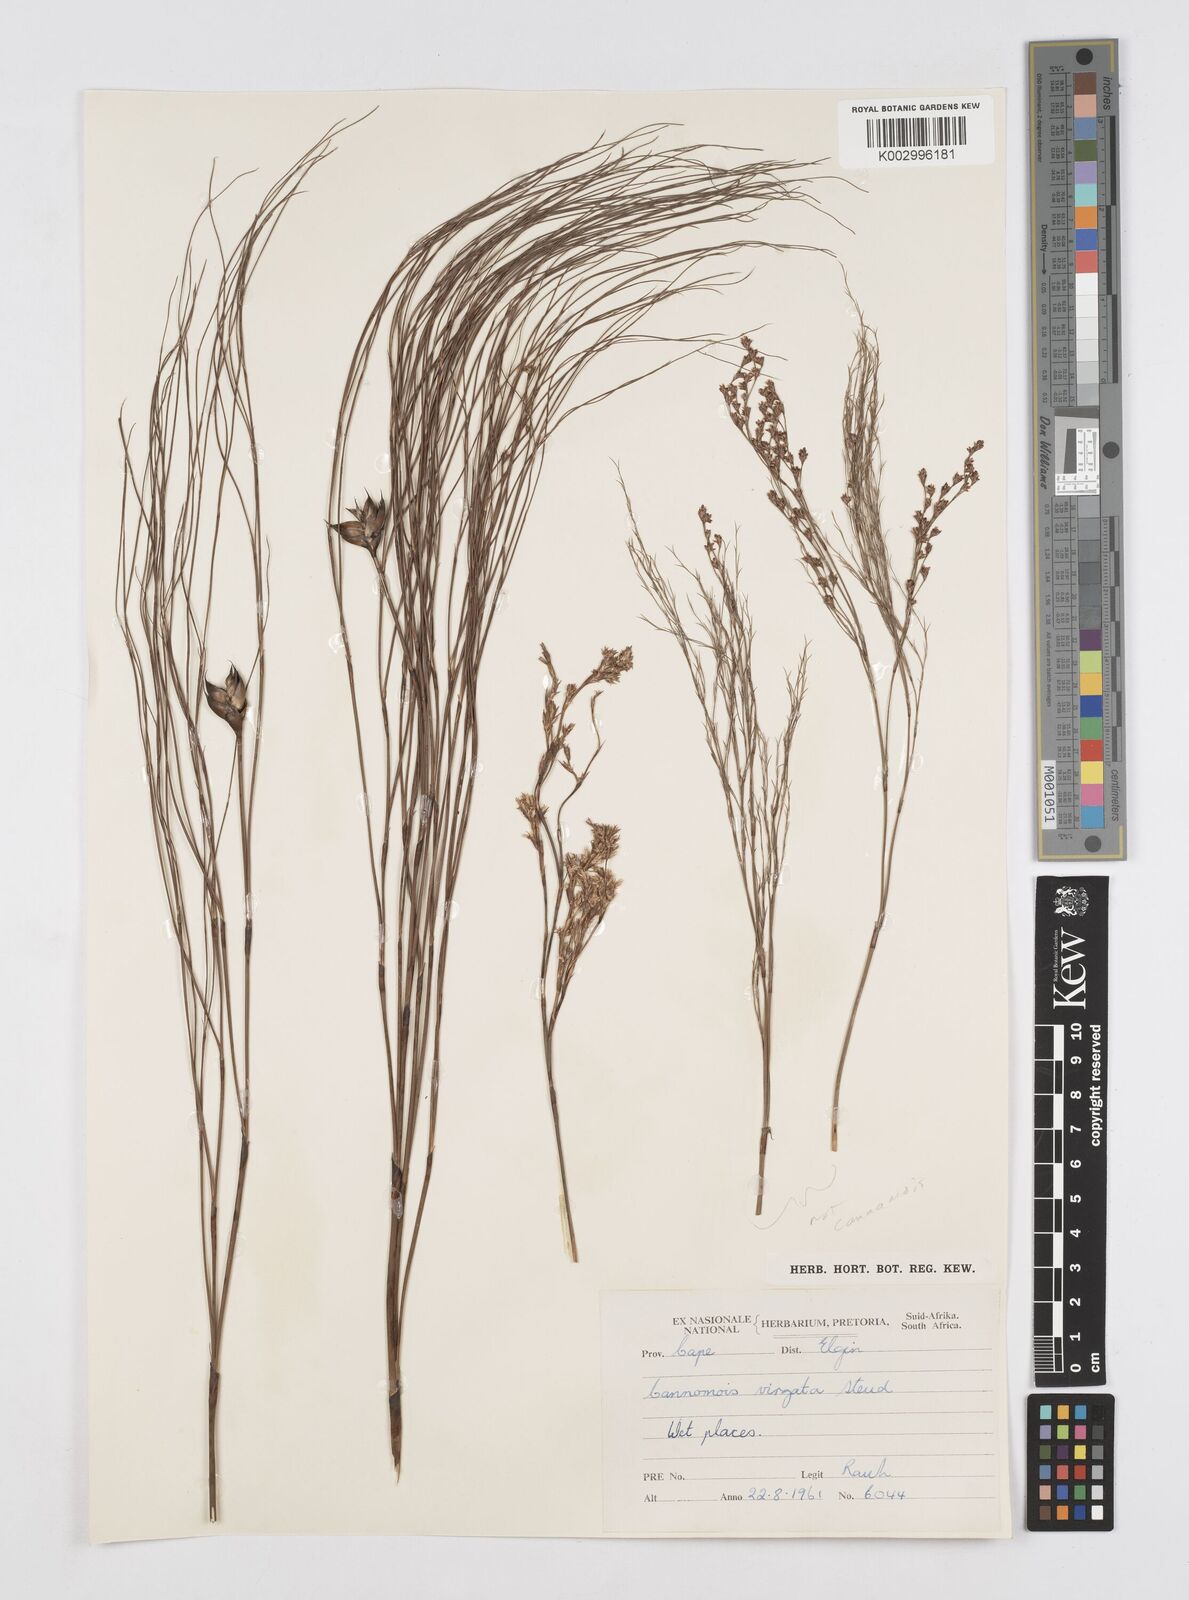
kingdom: Plantae
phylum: Tracheophyta
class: Liliopsida
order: Poales
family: Restionaceae
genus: Cannomois
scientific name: Cannomois virgata
